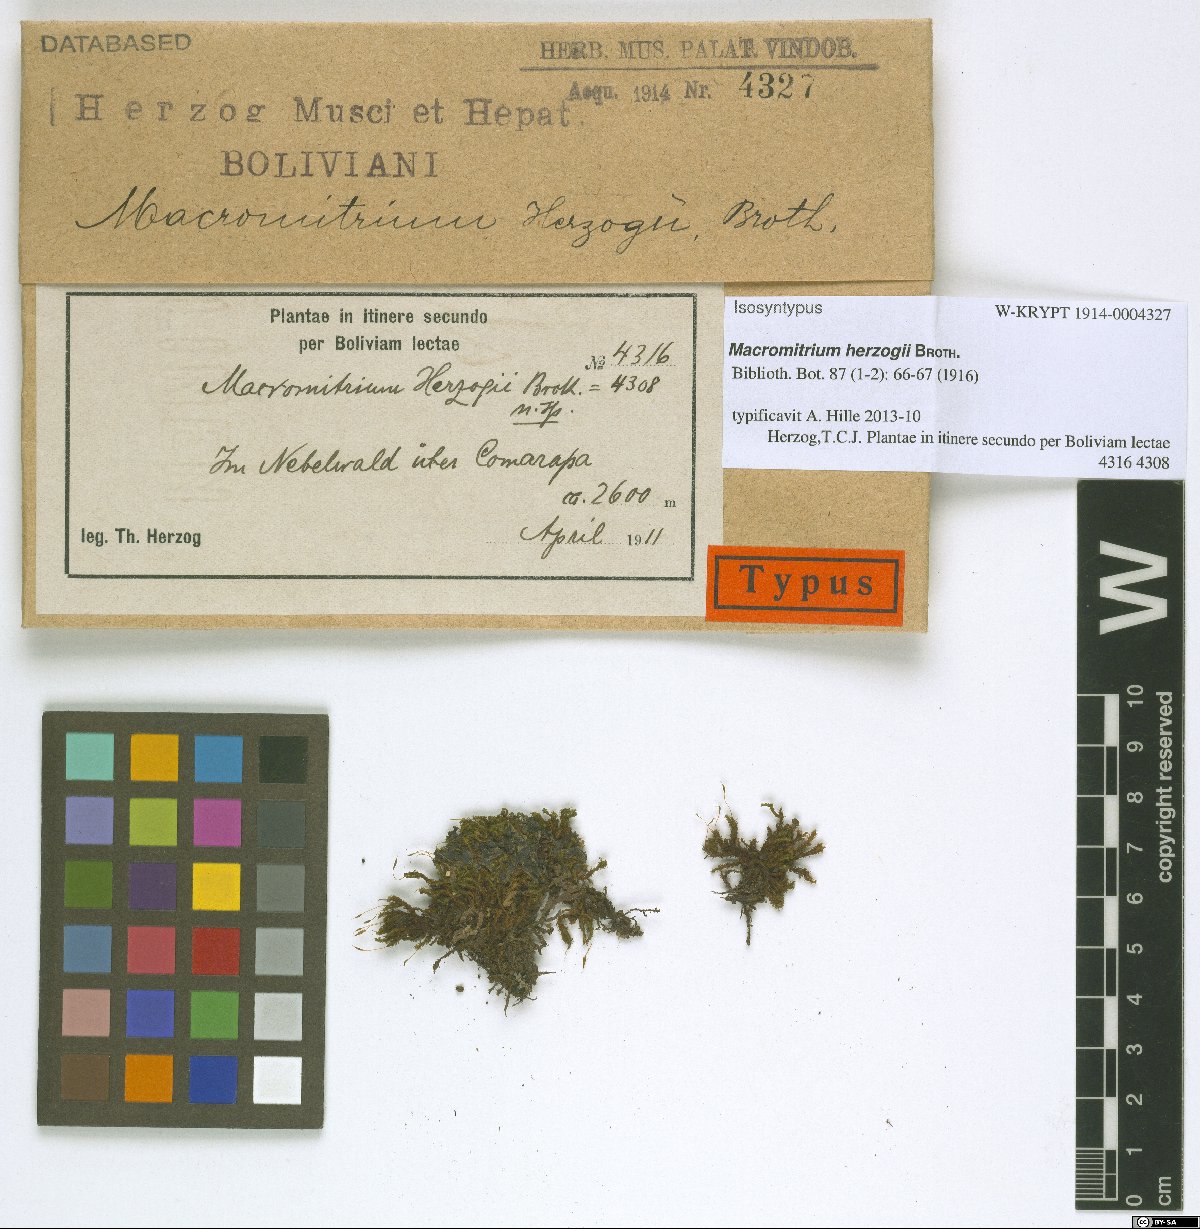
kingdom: Plantae
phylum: Bryophyta
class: Bryopsida
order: Orthotrichales
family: Orthotrichaceae
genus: Macromitrium
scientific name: Macromitrium herzogii
